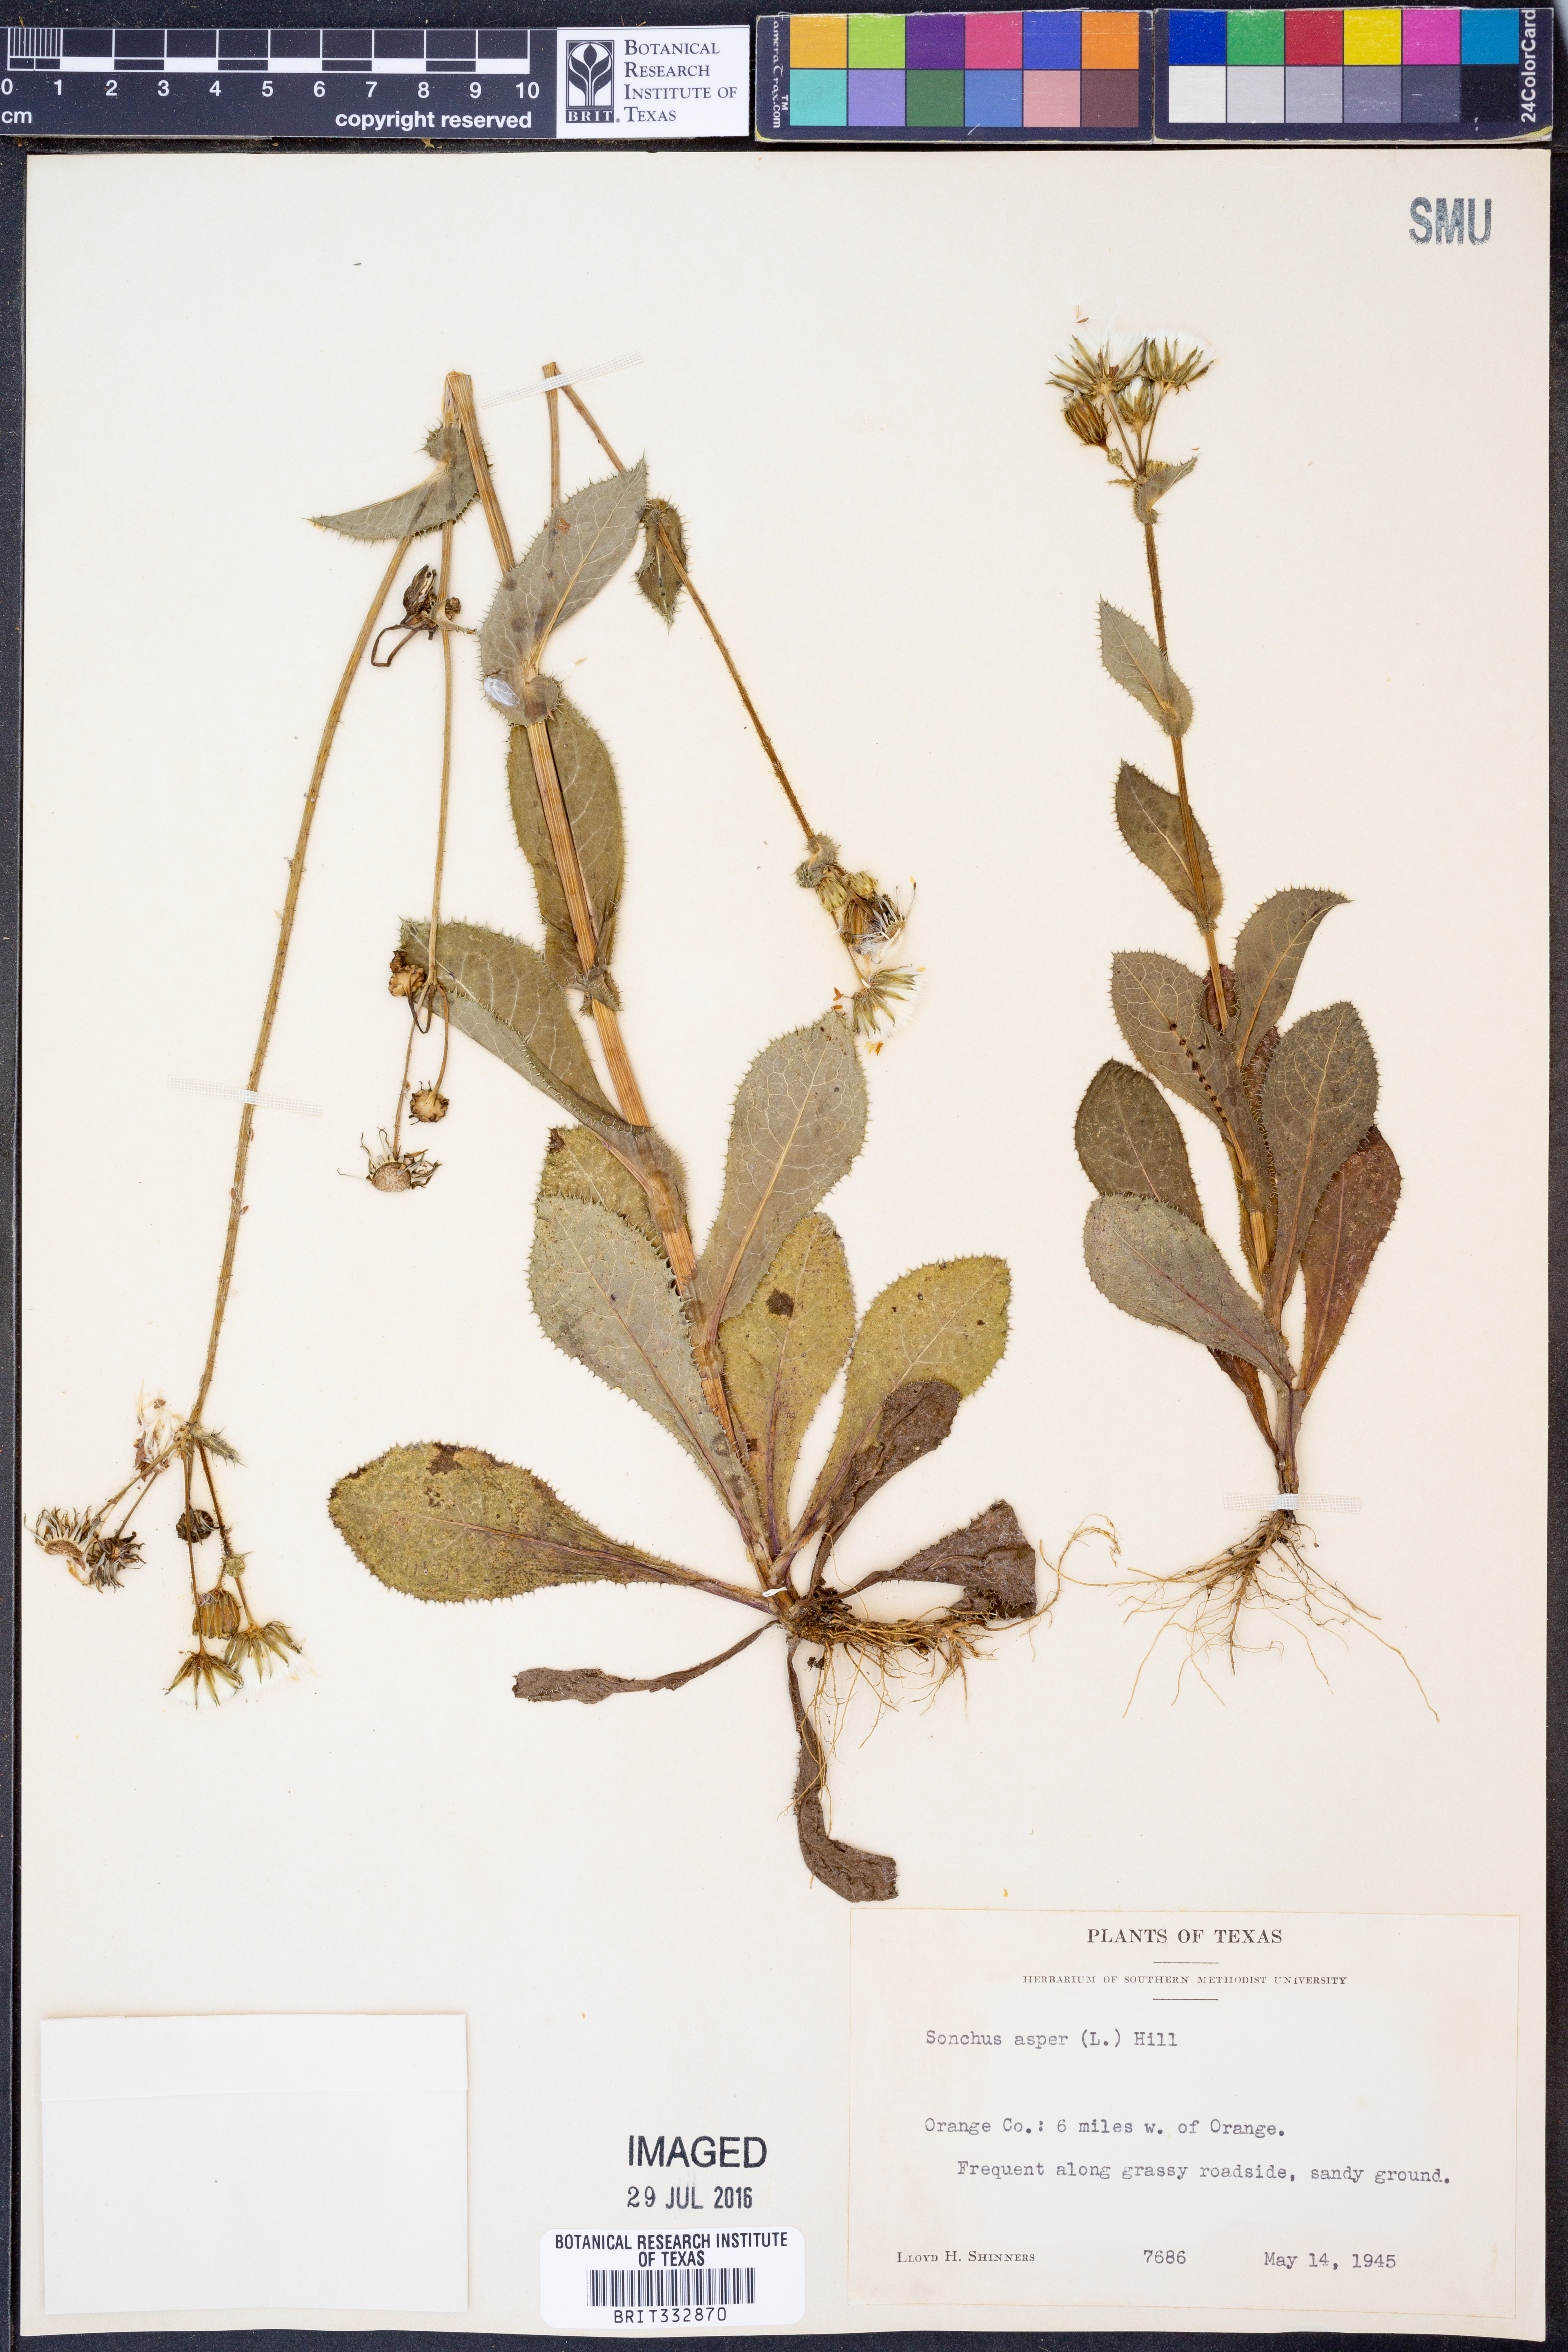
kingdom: Plantae
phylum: Tracheophyta
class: Magnoliopsida
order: Asterales
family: Asteraceae
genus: Sonchus
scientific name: Sonchus asper
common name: Prickly sow-thistle
